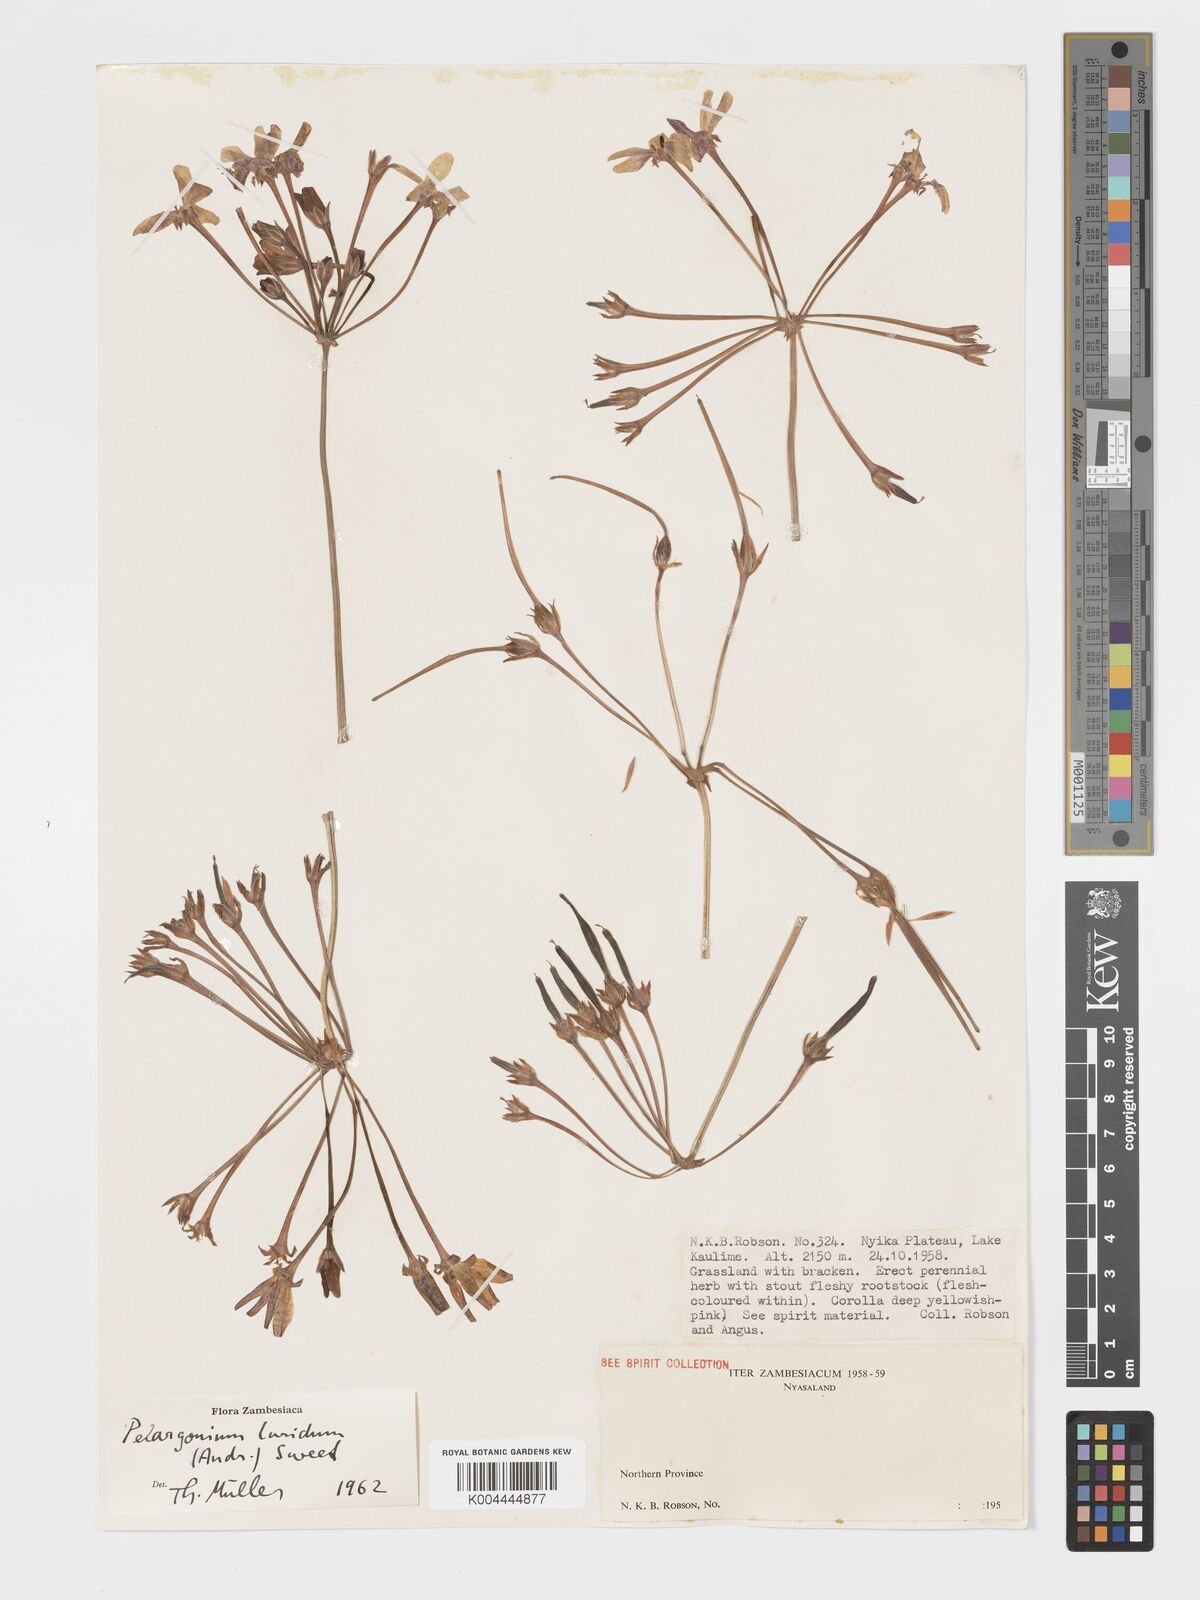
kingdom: Plantae
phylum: Tracheophyta
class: Magnoliopsida
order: Geraniales
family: Geraniaceae
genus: Pelargonium
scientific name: Pelargonium luridum
